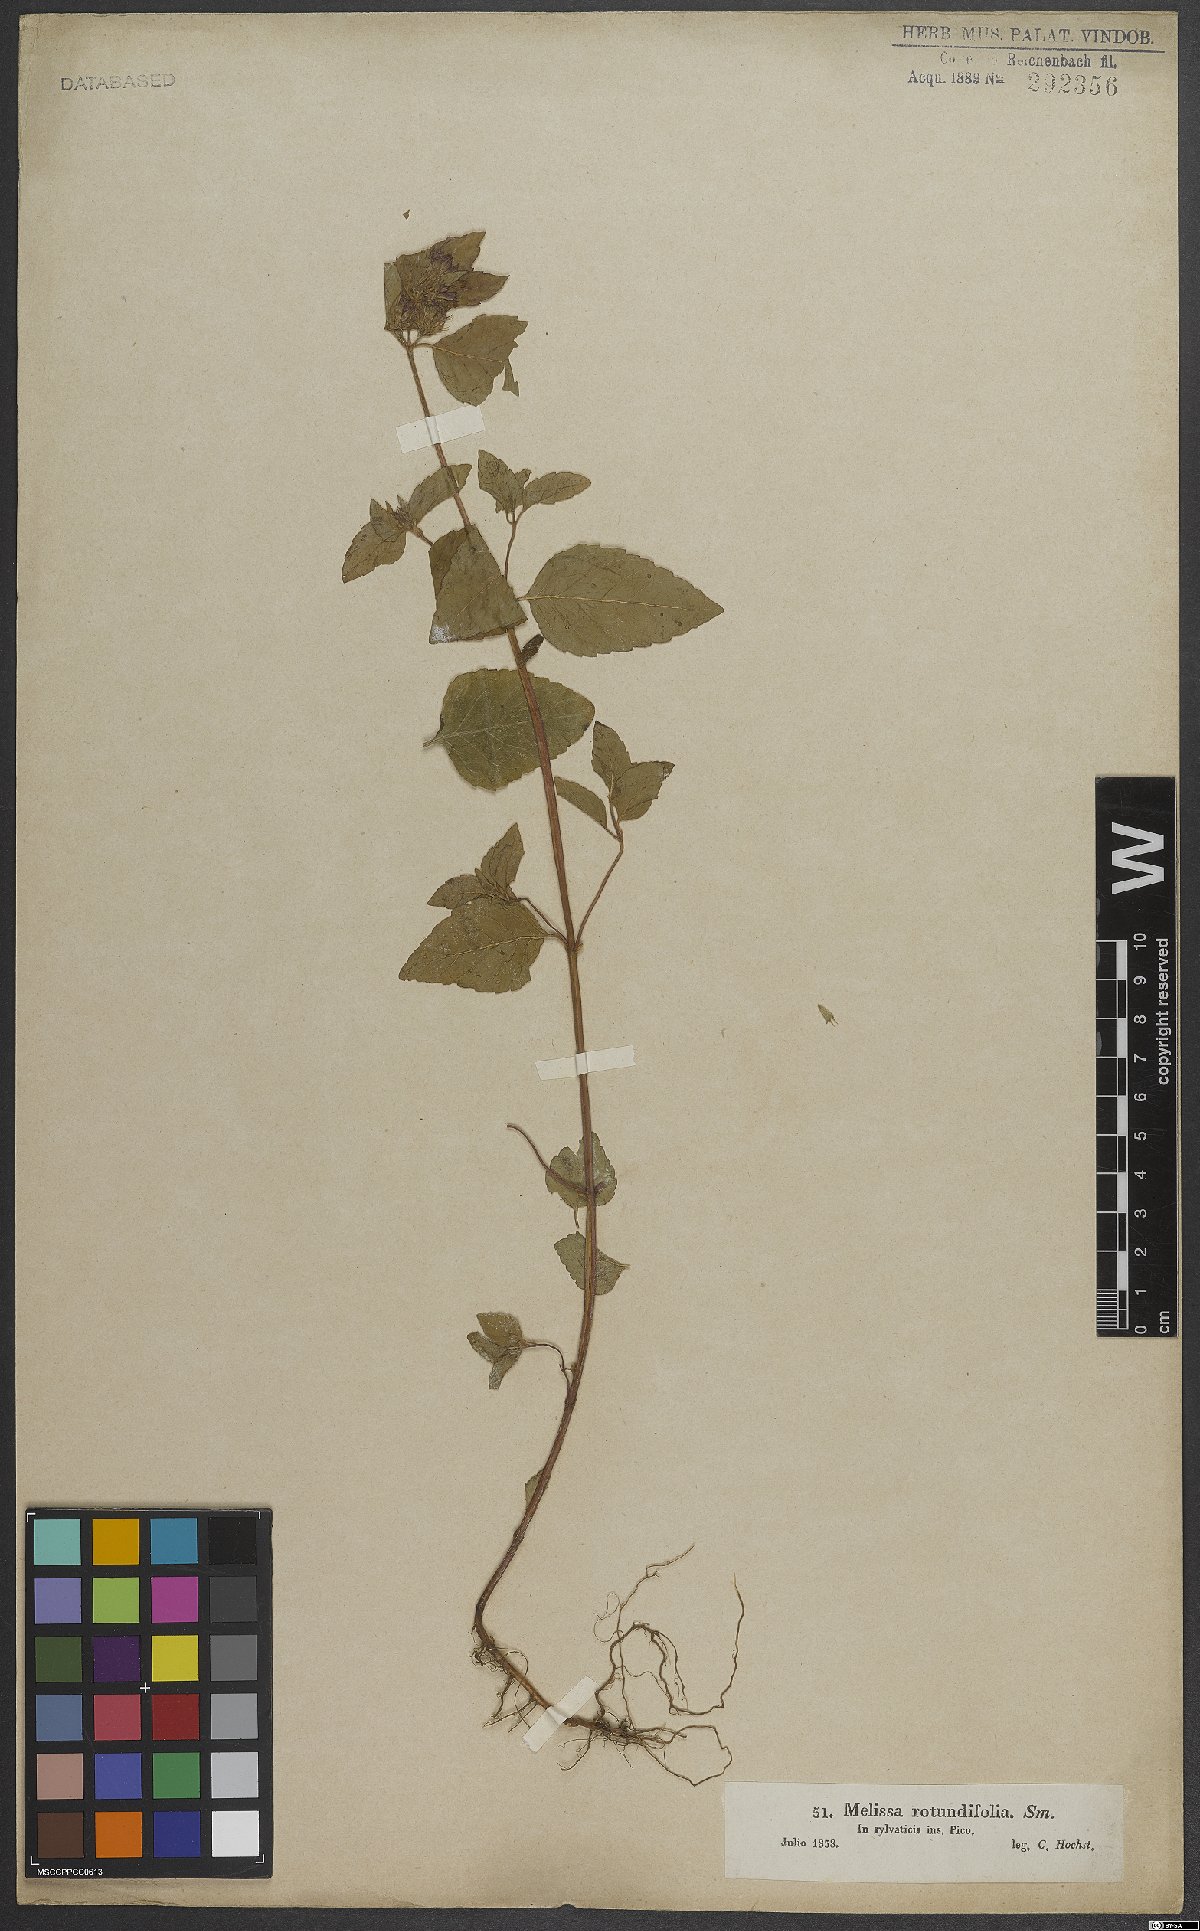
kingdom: Plantae
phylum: Tracheophyta
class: Magnoliopsida
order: Lamiales
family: Lamiaceae
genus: Melissa
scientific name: Melissa
